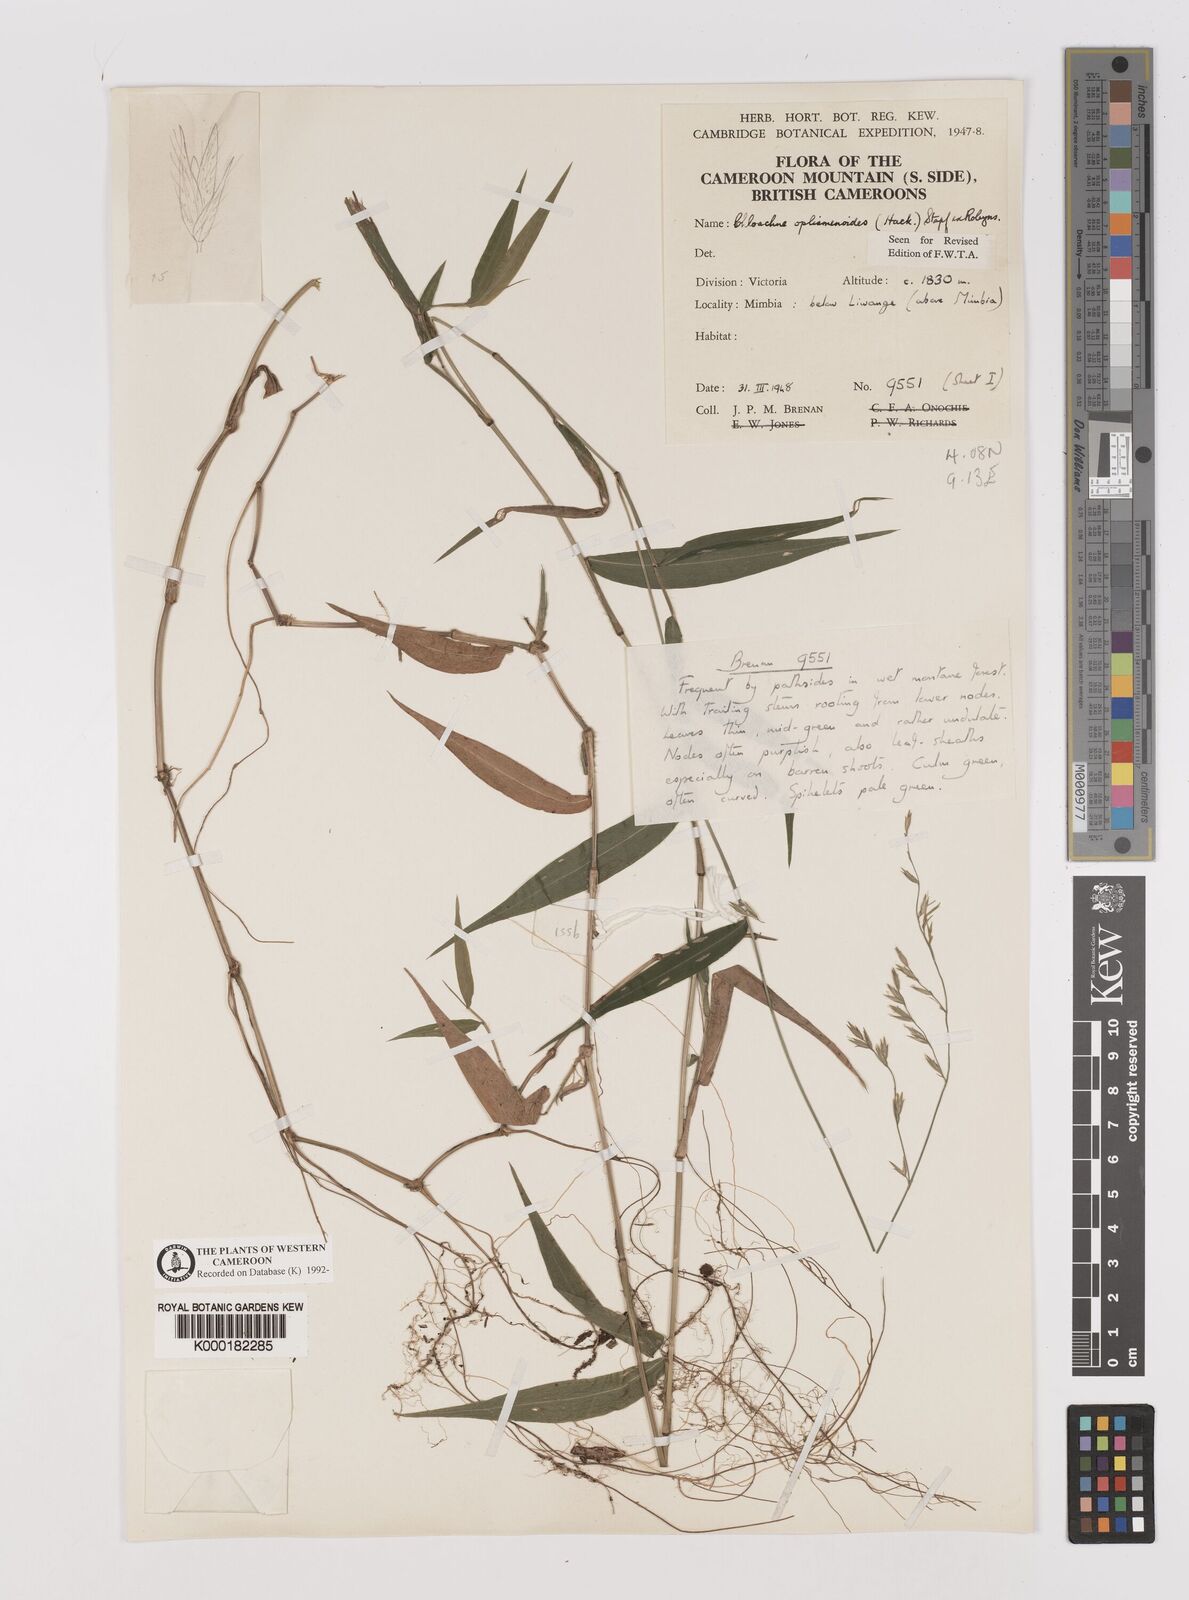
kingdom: Plantae
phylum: Tracheophyta
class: Liliopsida
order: Poales
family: Poaceae
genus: Poecilostachys
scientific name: Poecilostachys oplismenoides
